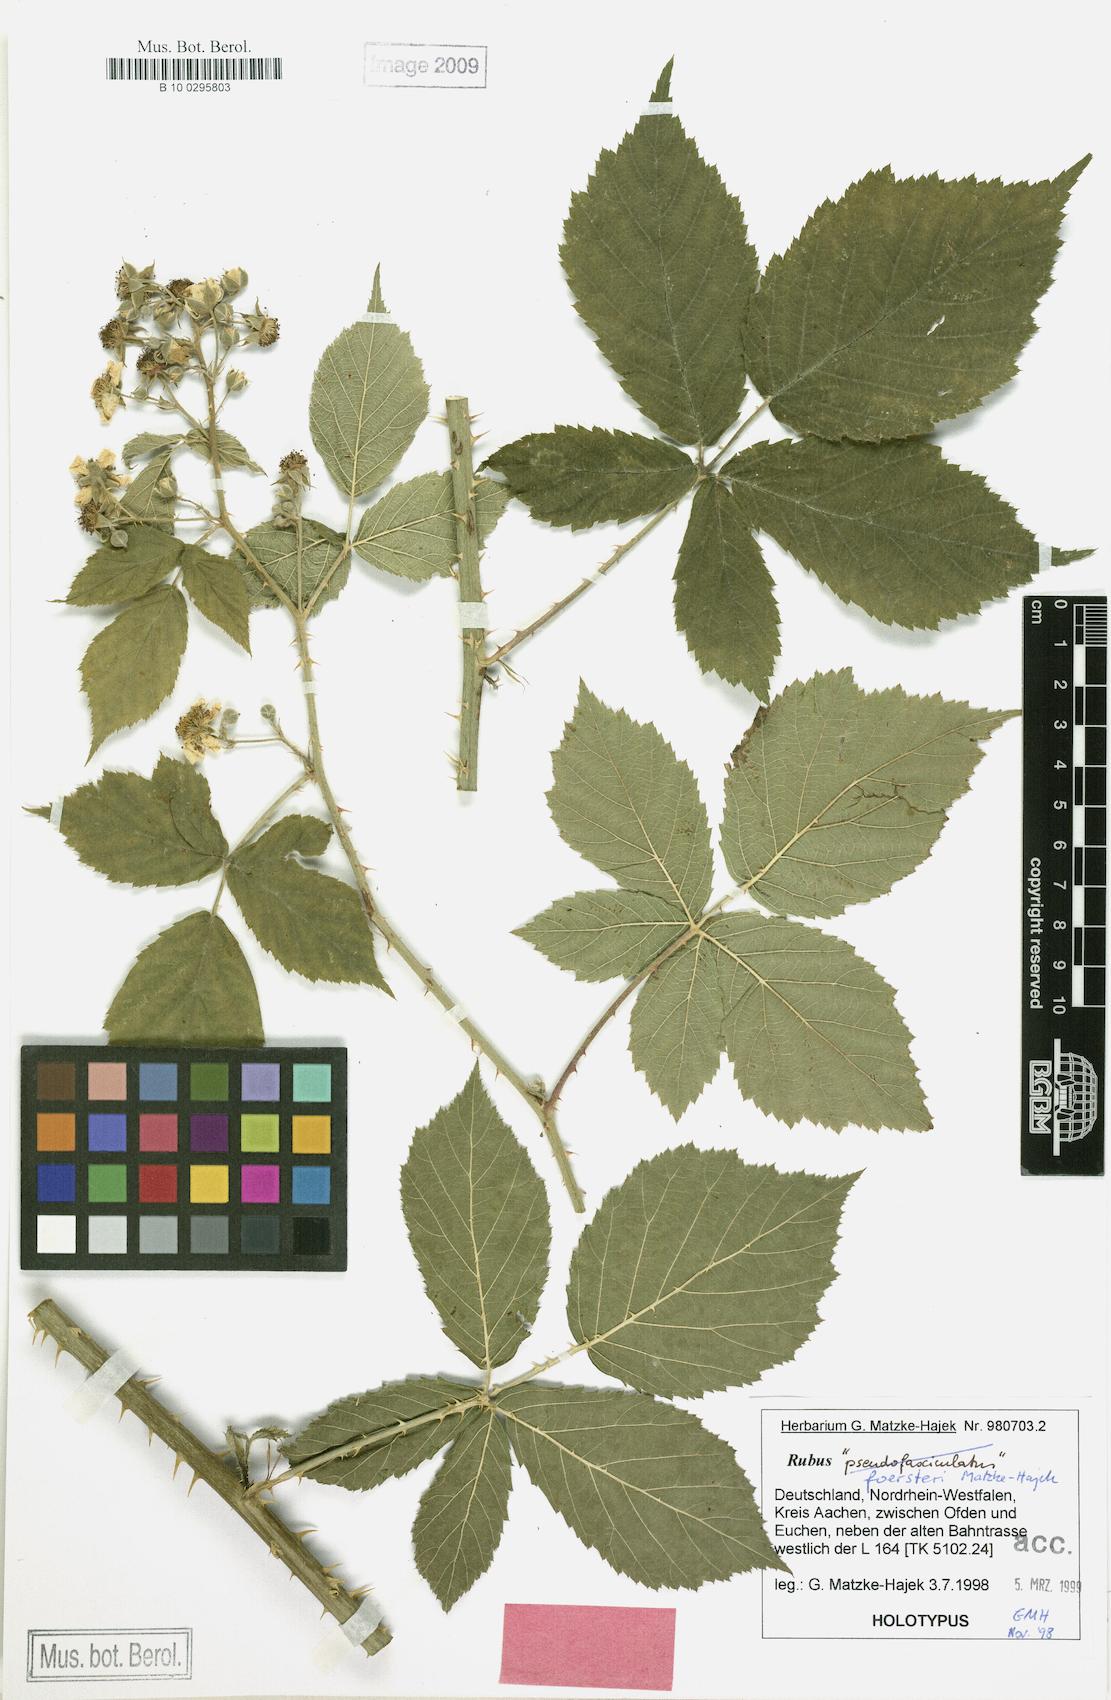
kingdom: Plantae
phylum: Tracheophyta
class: Magnoliopsida
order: Rosales
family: Rosaceae
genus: Rubus
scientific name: Rubus foersteri
